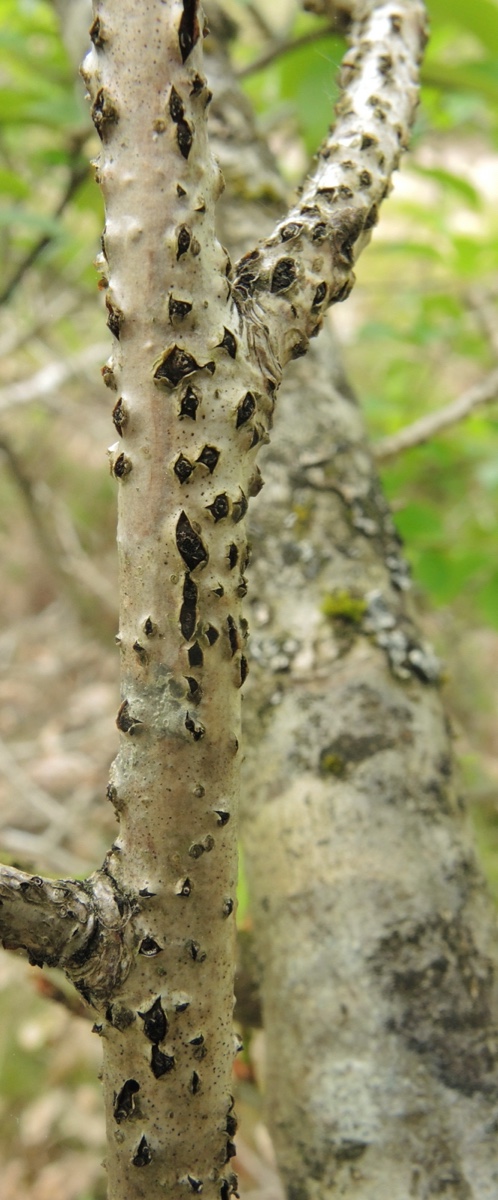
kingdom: Fungi
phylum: Ascomycota
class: Sordariomycetes
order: Xylariales
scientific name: Xylariales
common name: stødsvampordenen
